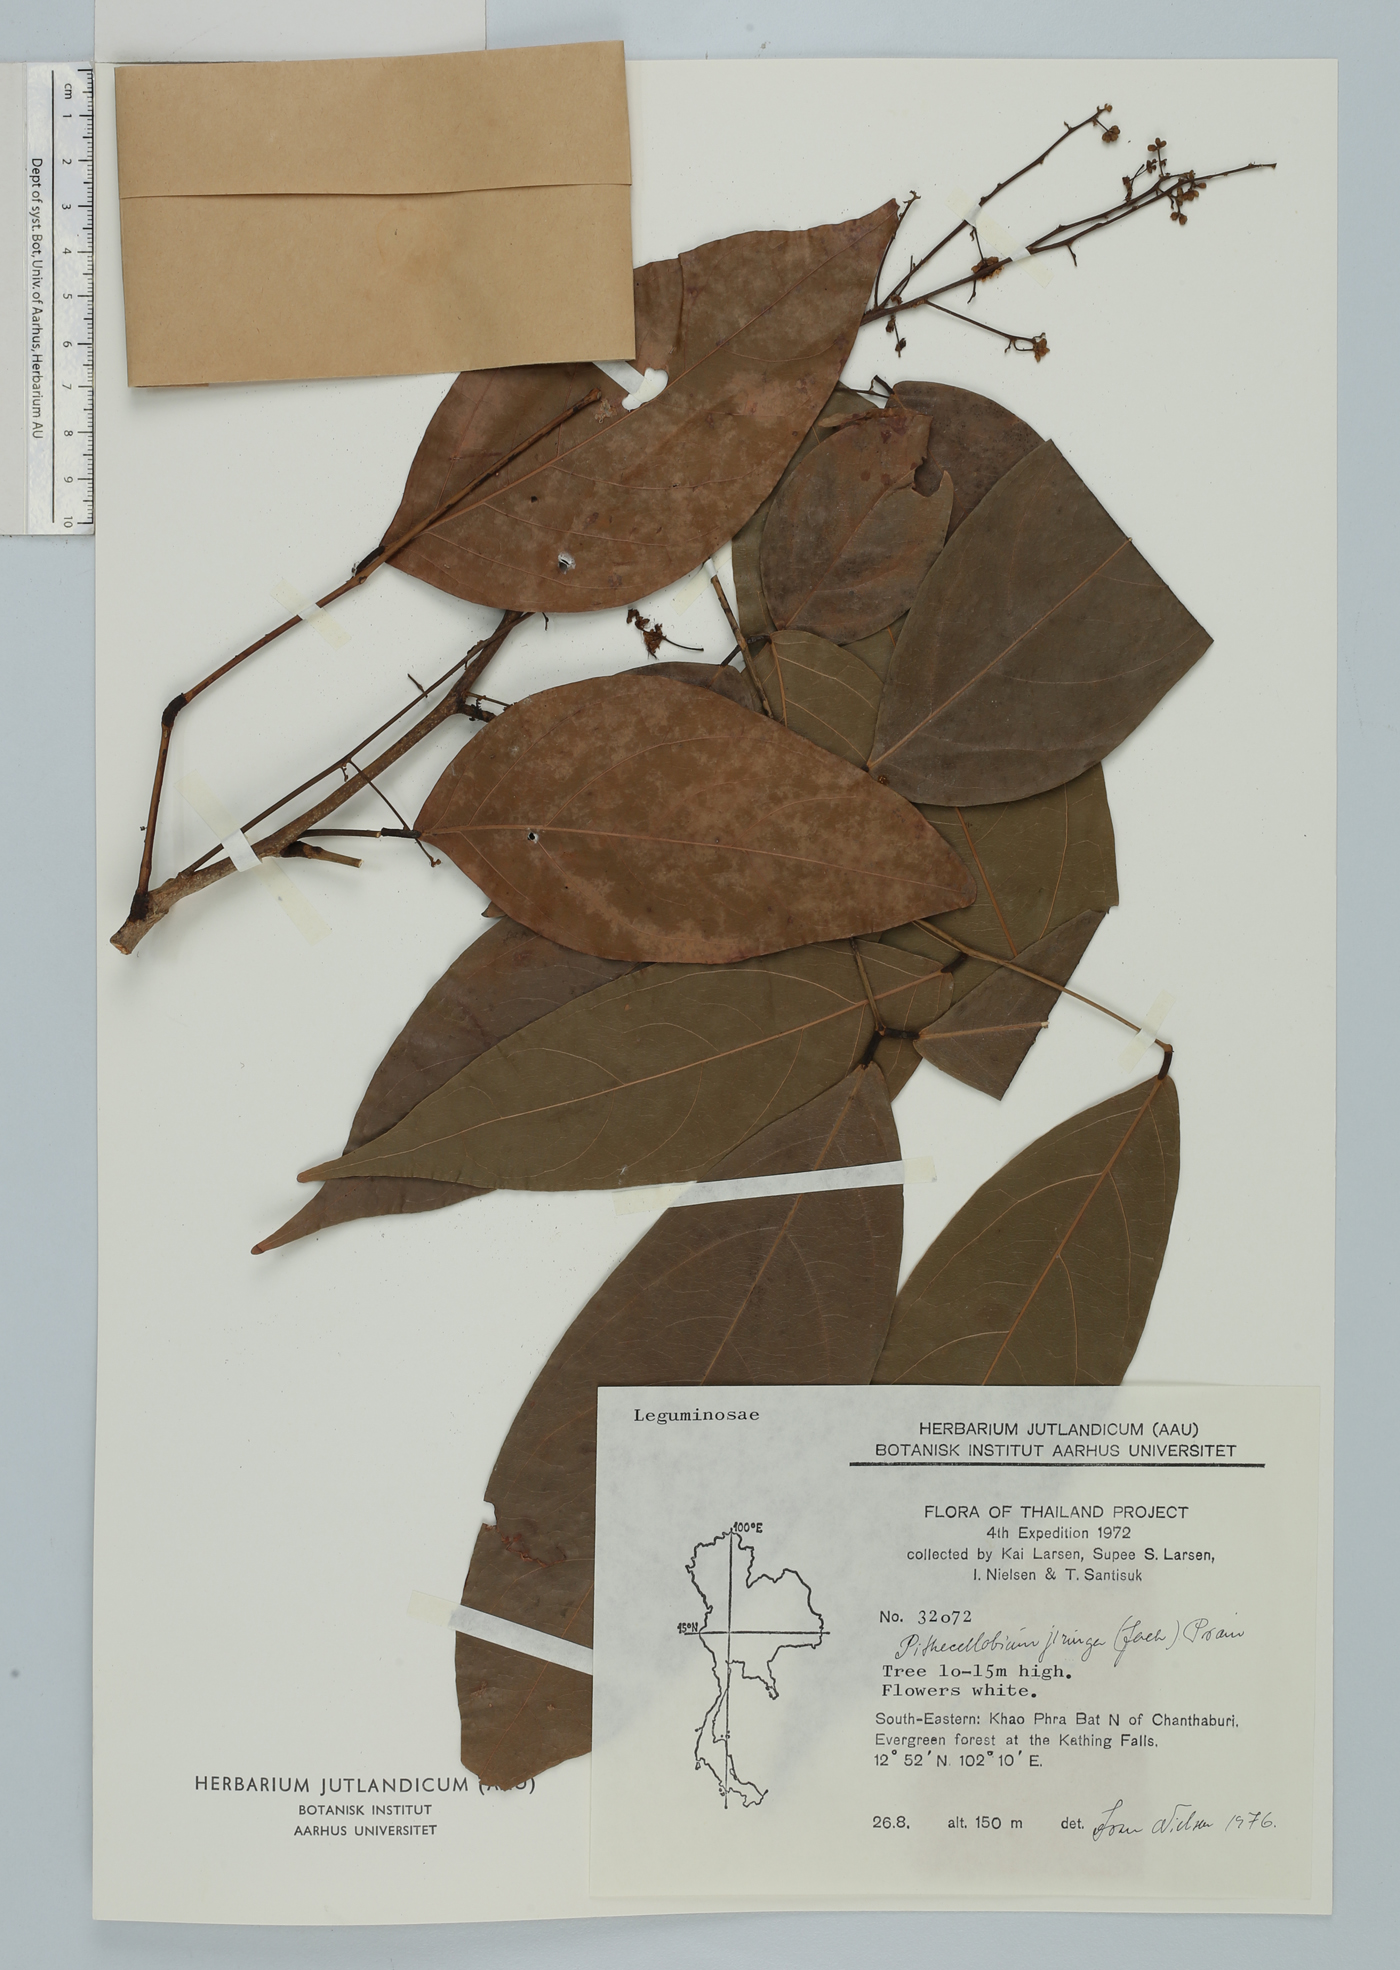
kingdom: Plantae
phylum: Tracheophyta
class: Magnoliopsida
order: Fabales
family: Fabaceae
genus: Archidendron
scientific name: Archidendron jiringa
